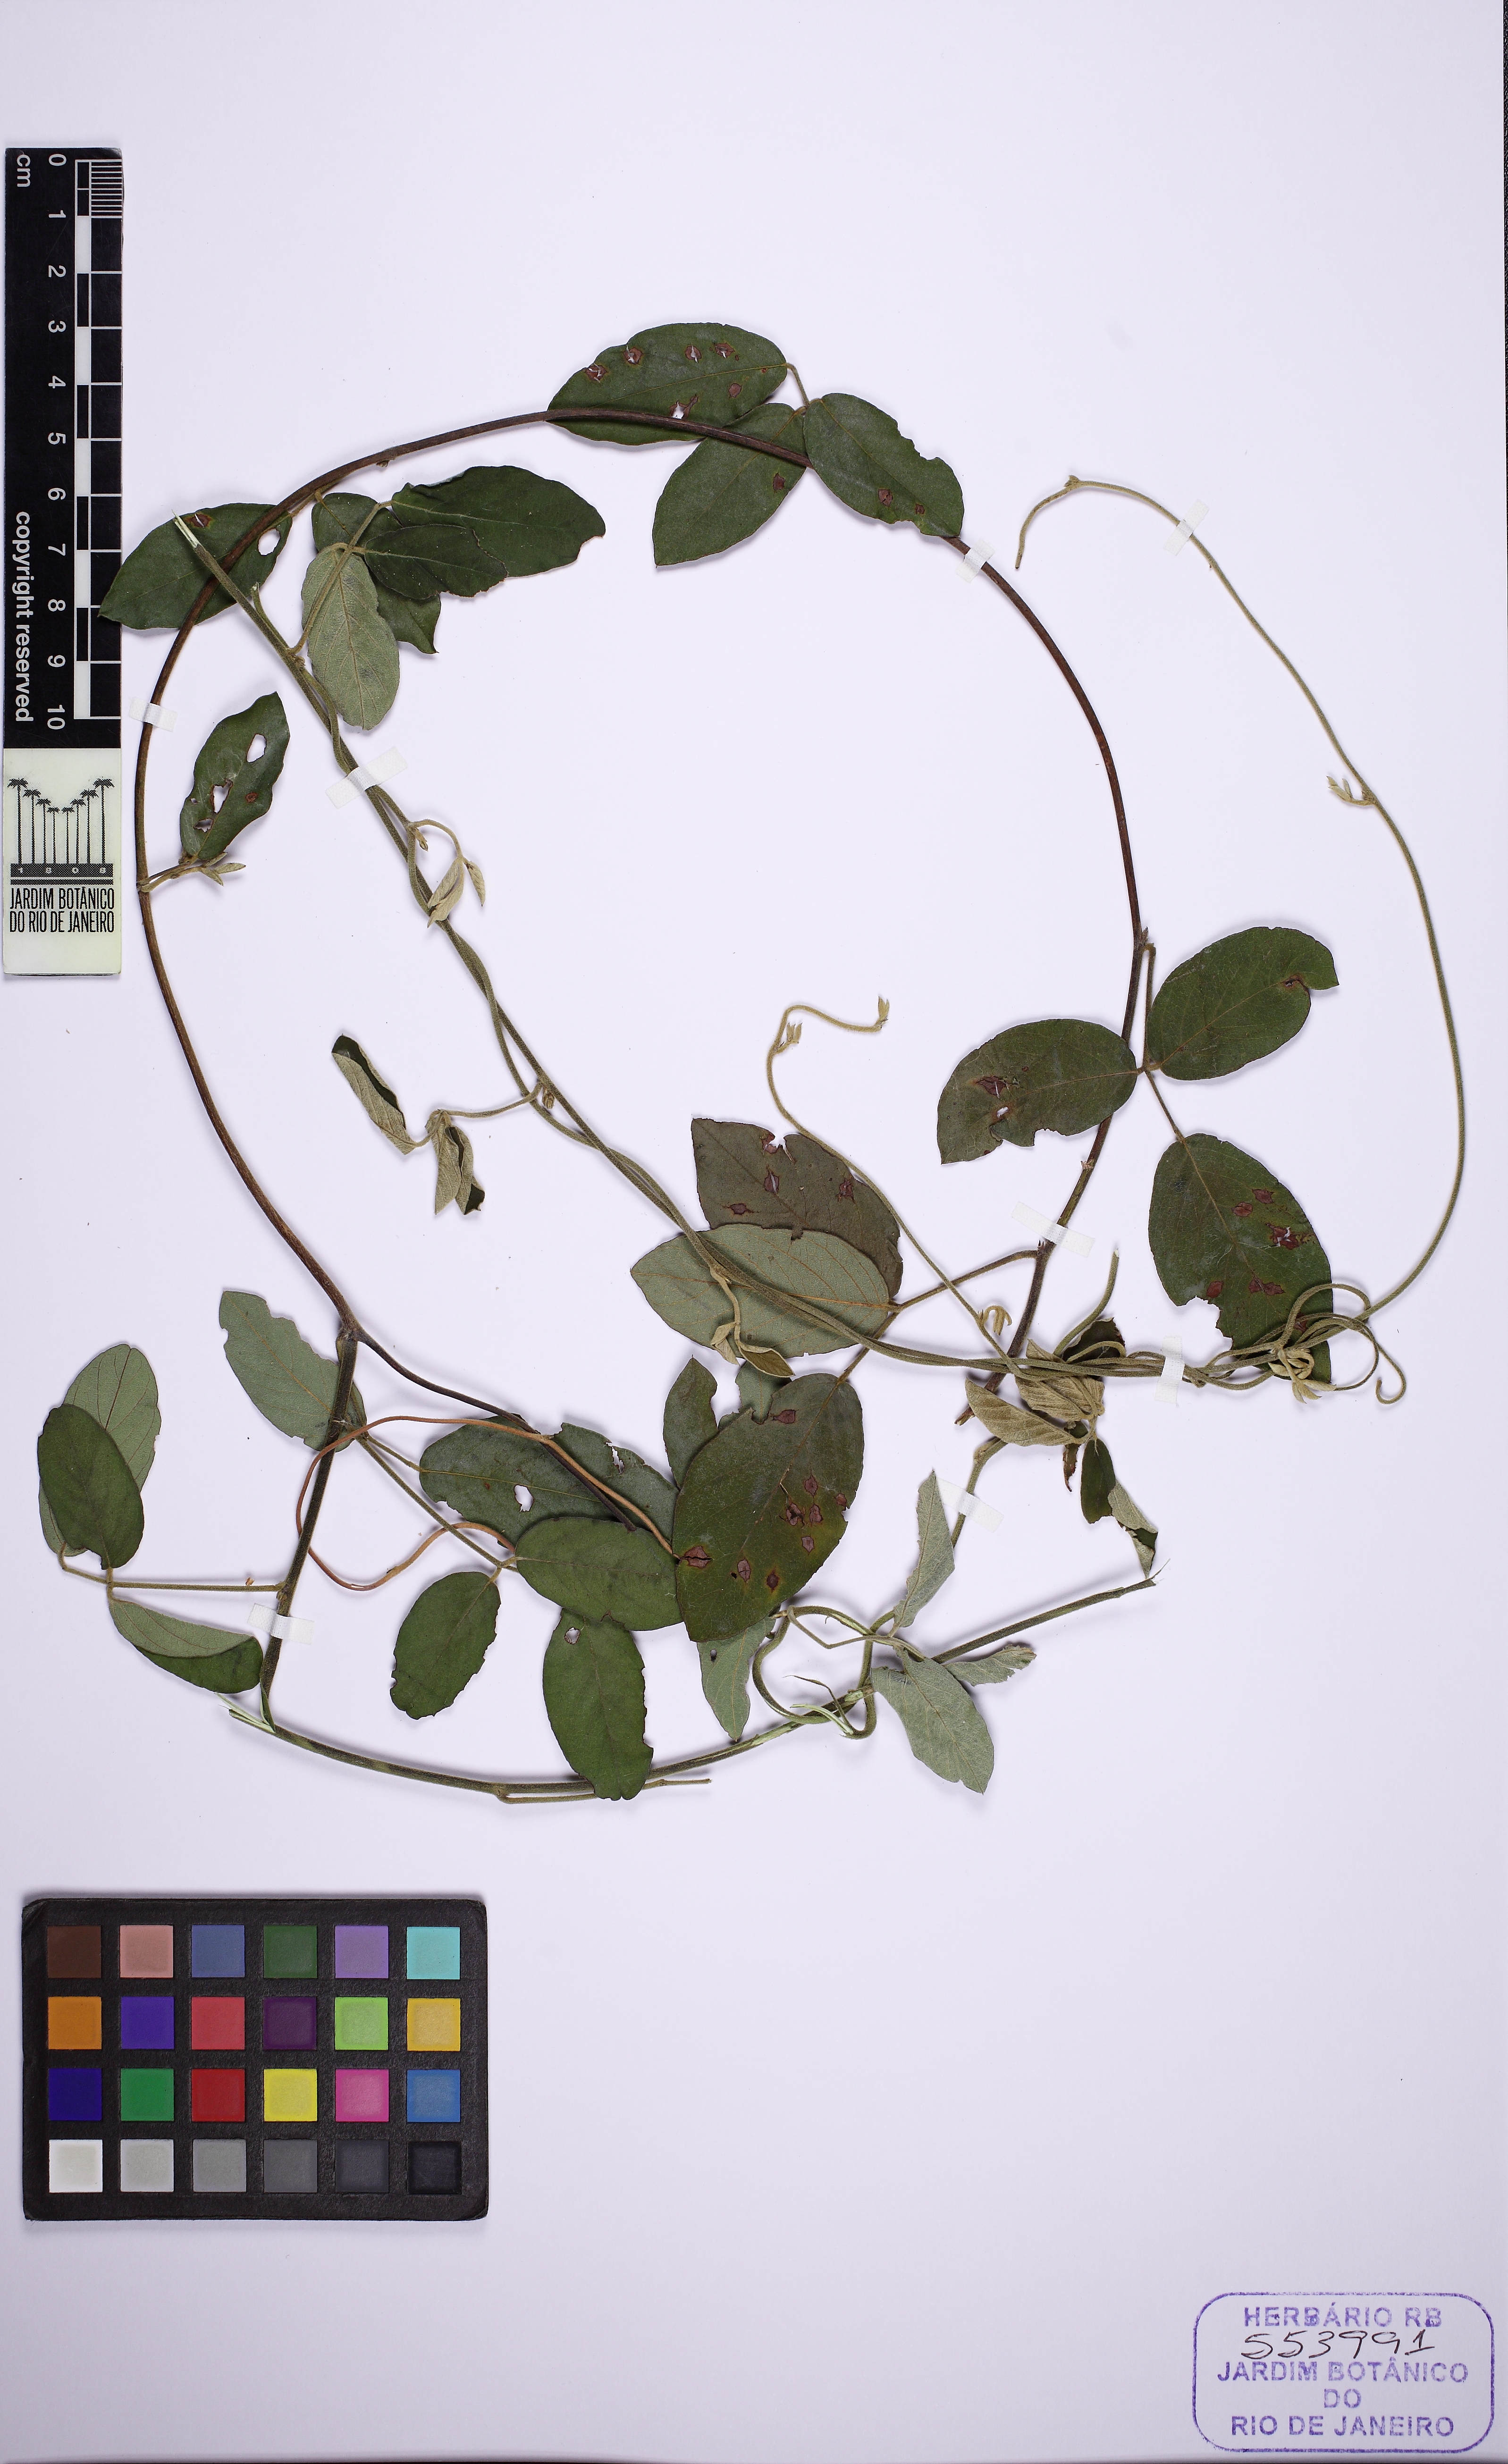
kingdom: Plantae
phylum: Tracheophyta
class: Magnoliopsida
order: Fabales
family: Fabaceae
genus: Cerradicola
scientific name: Cerradicola elliptica
